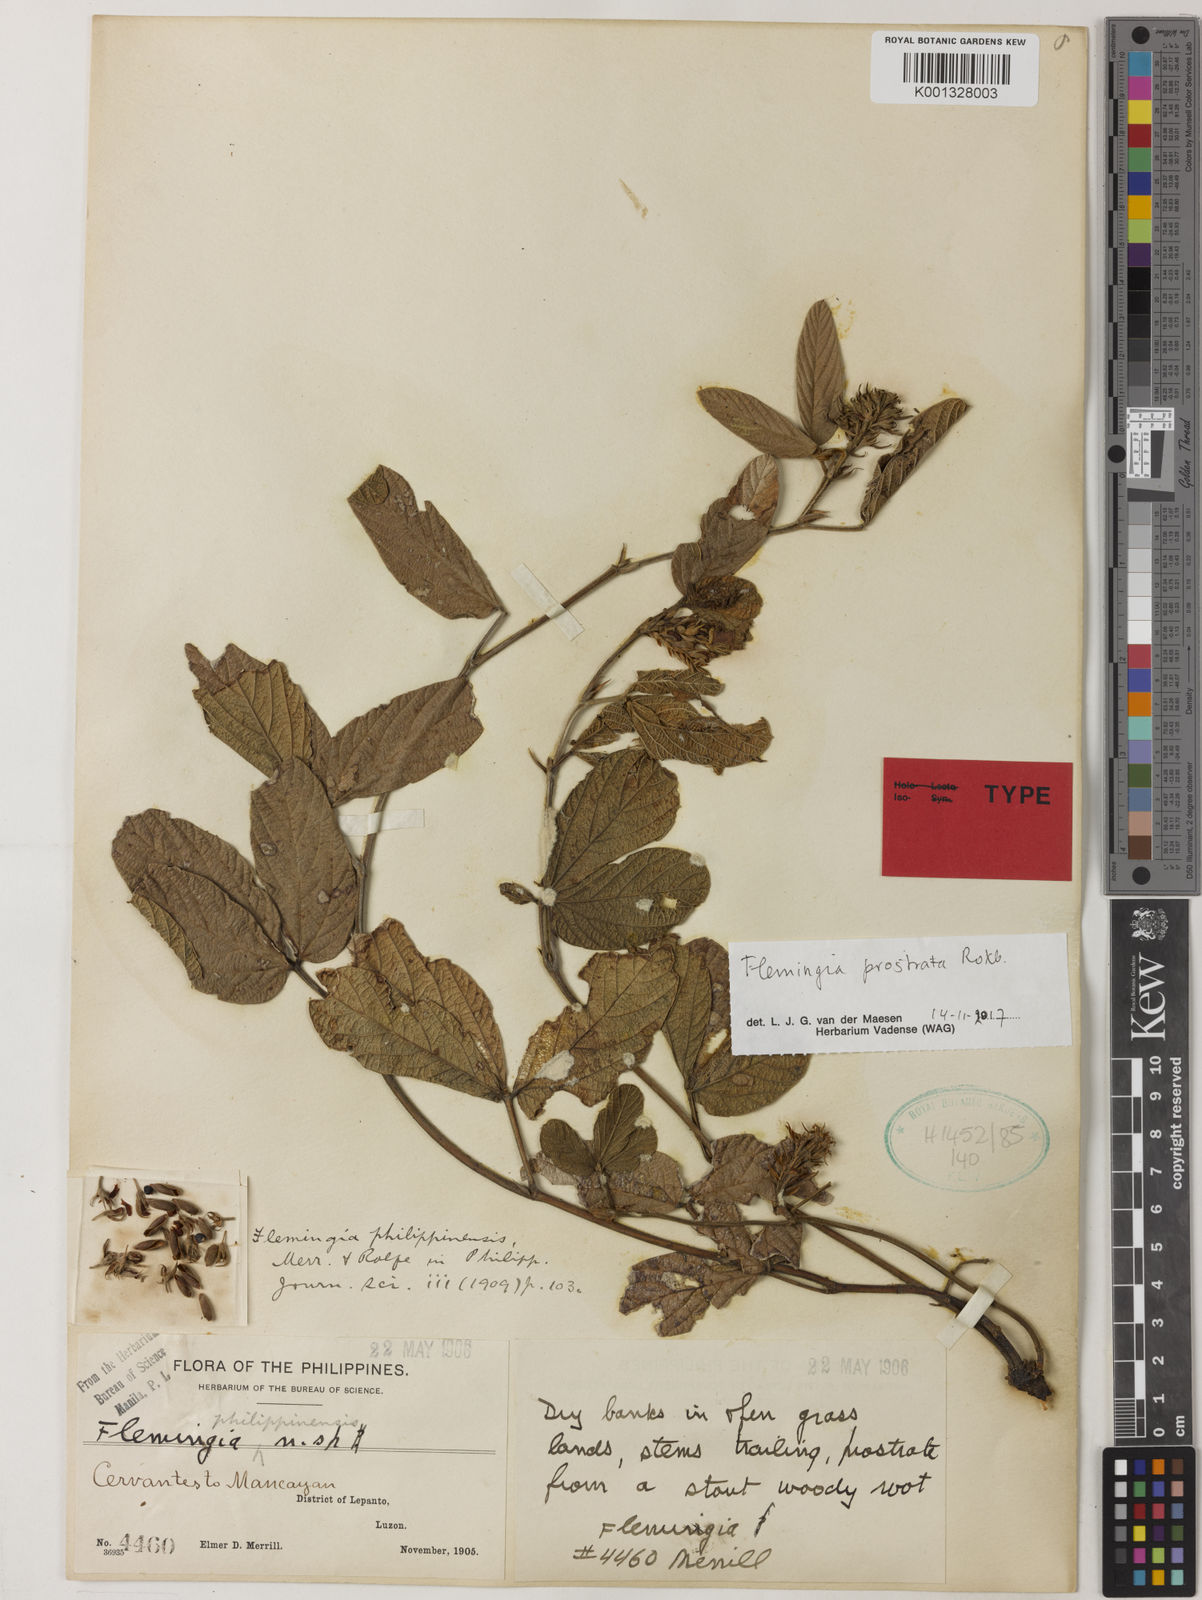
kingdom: Plantae
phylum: Tracheophyta
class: Magnoliopsida
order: Fabales
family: Fabaceae
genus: Flemingia
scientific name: Flemingia prostrata
